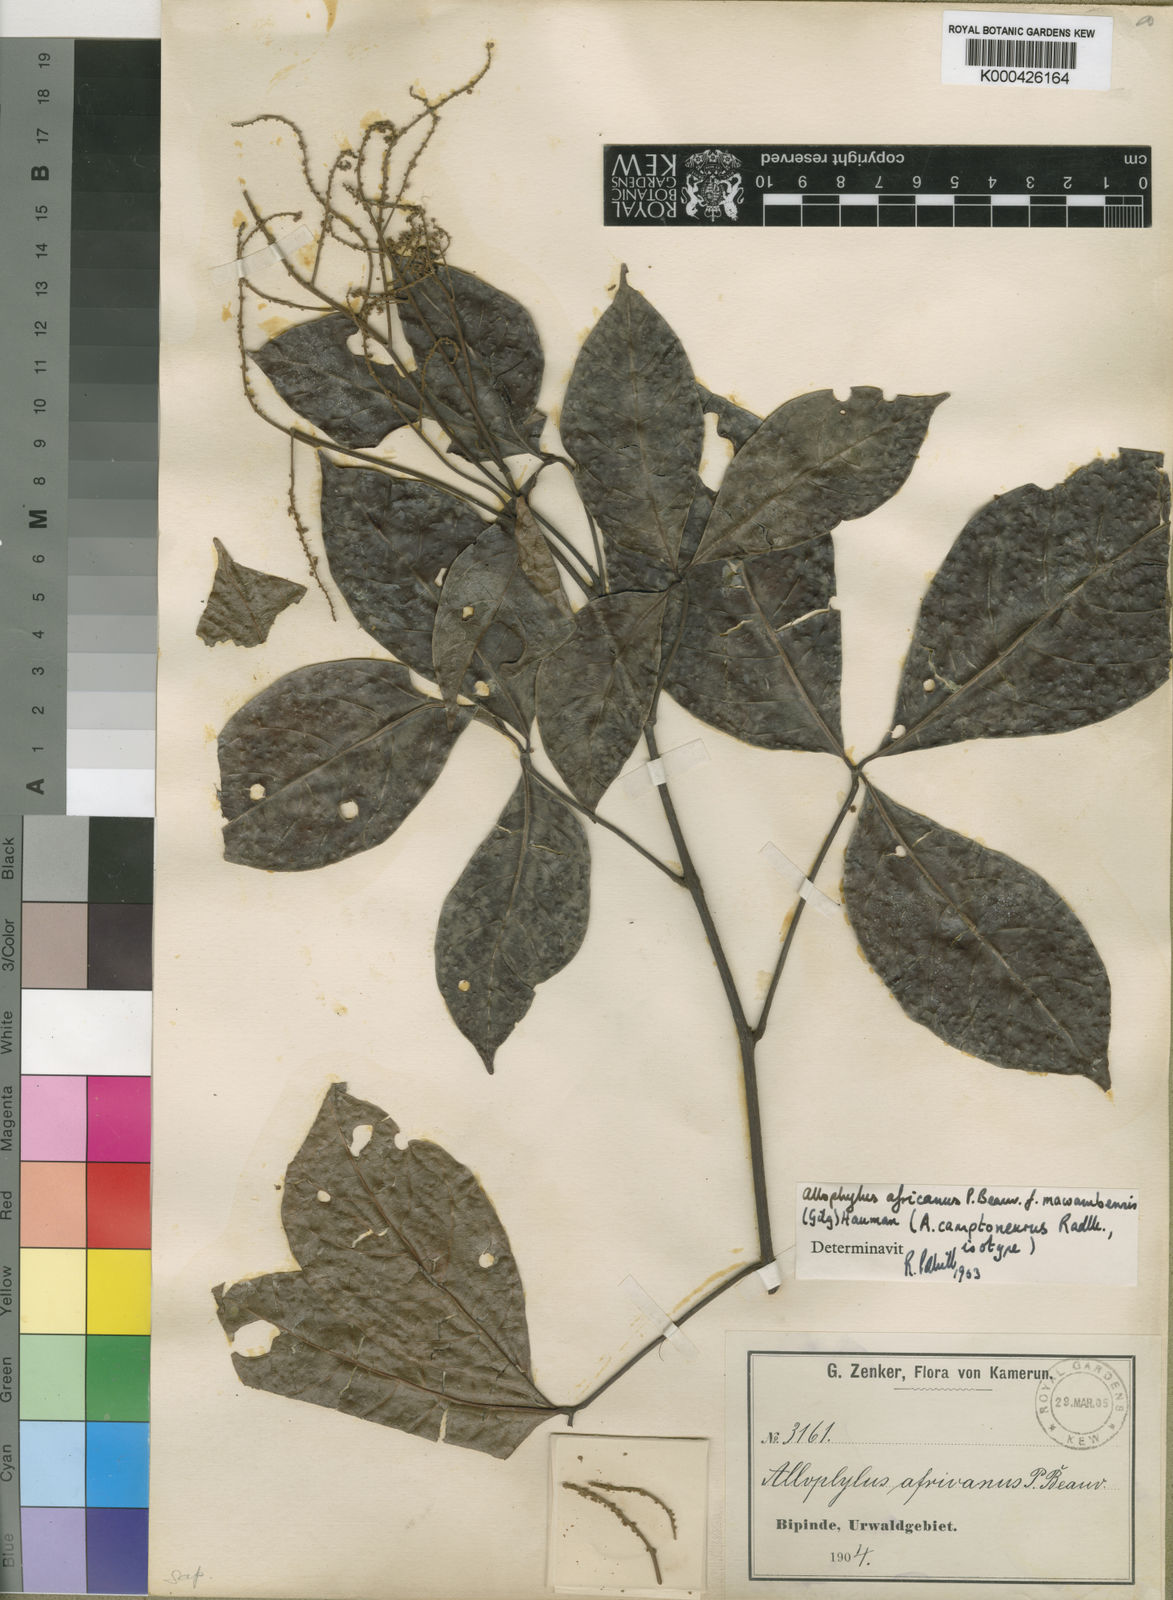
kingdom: Plantae
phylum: Tracheophyta
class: Magnoliopsida
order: Sapindales
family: Sapindaceae
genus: Allophylus
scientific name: Allophylus africanus
